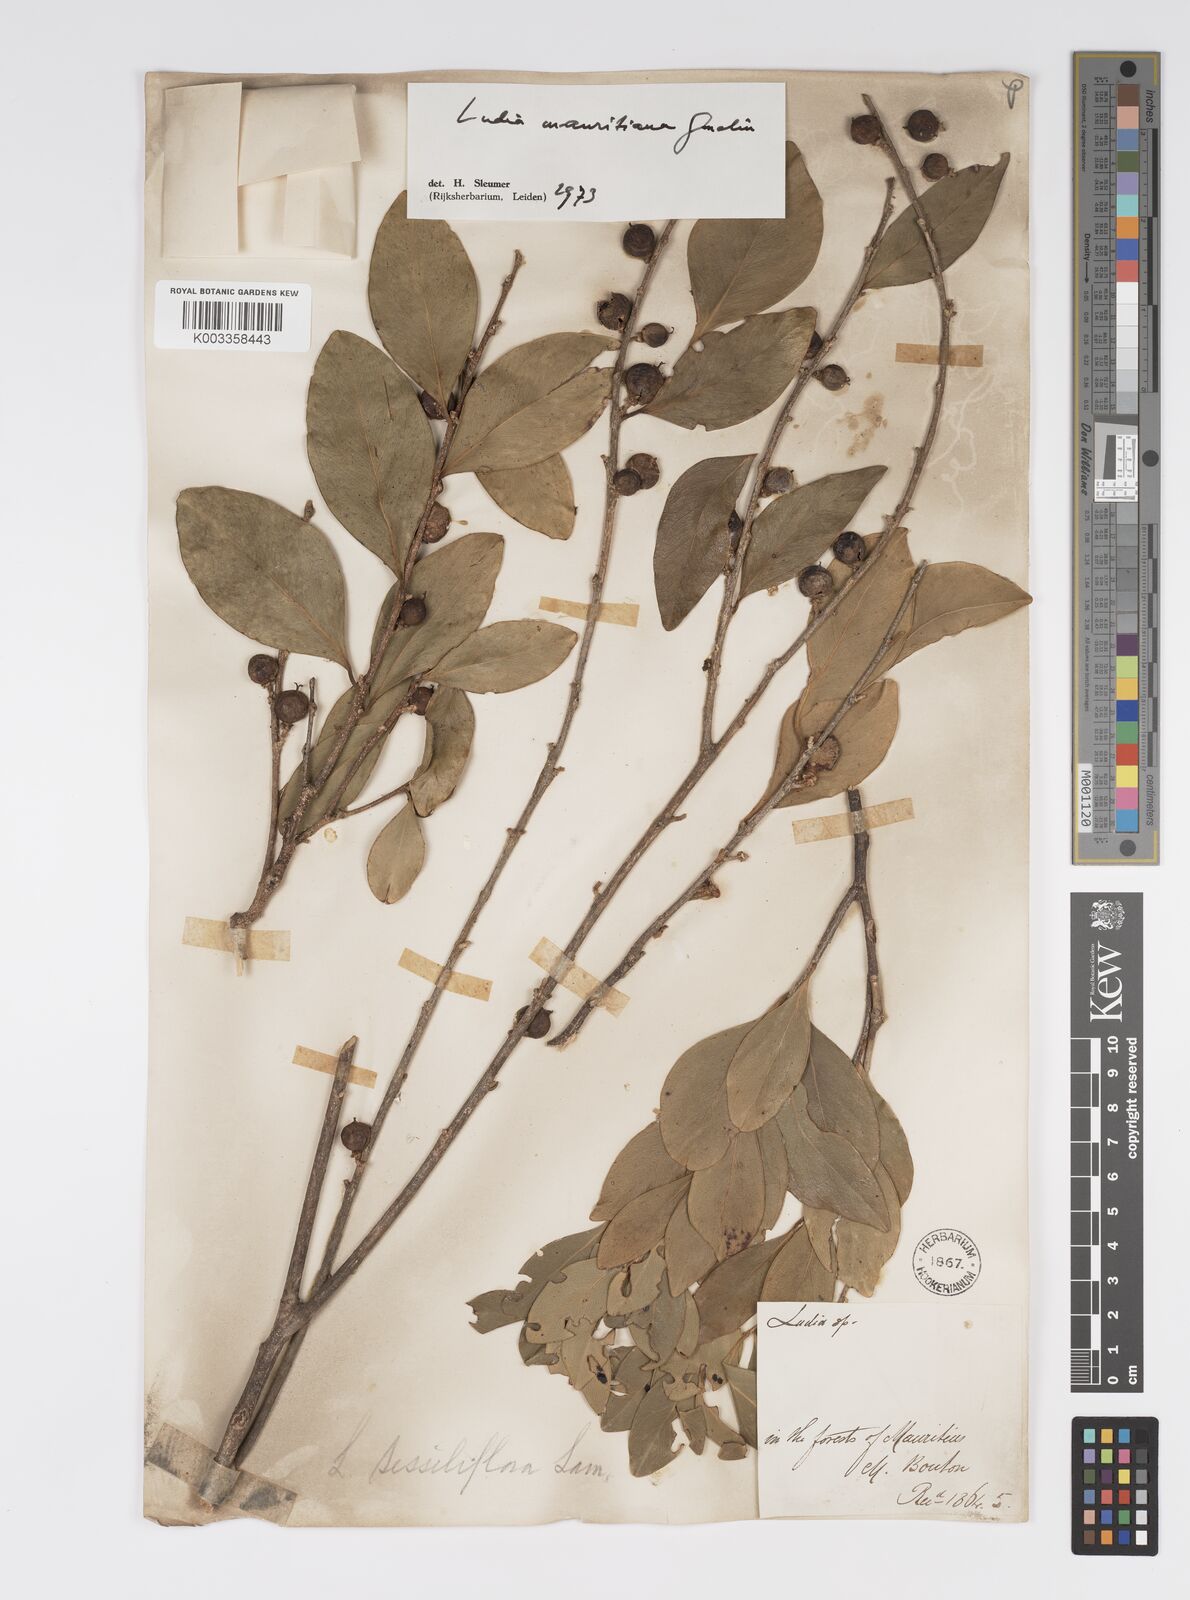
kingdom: Plantae
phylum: Tracheophyta
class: Magnoliopsida
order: Malpighiales
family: Salicaceae
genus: Ludia
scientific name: Ludia mauritiana
